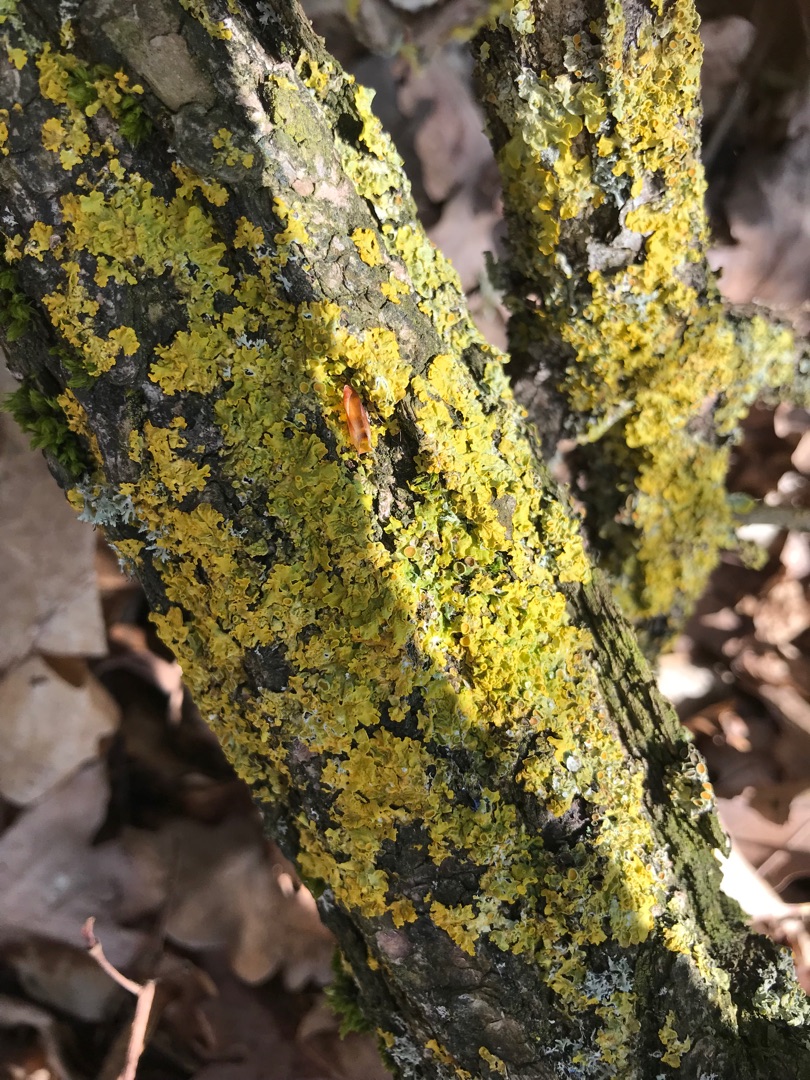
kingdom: Fungi
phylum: Ascomycota
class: Lecanoromycetes
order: Teloschistales
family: Teloschistaceae
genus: Xanthoria
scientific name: Xanthoria parietina
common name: Almindelig væggelav
